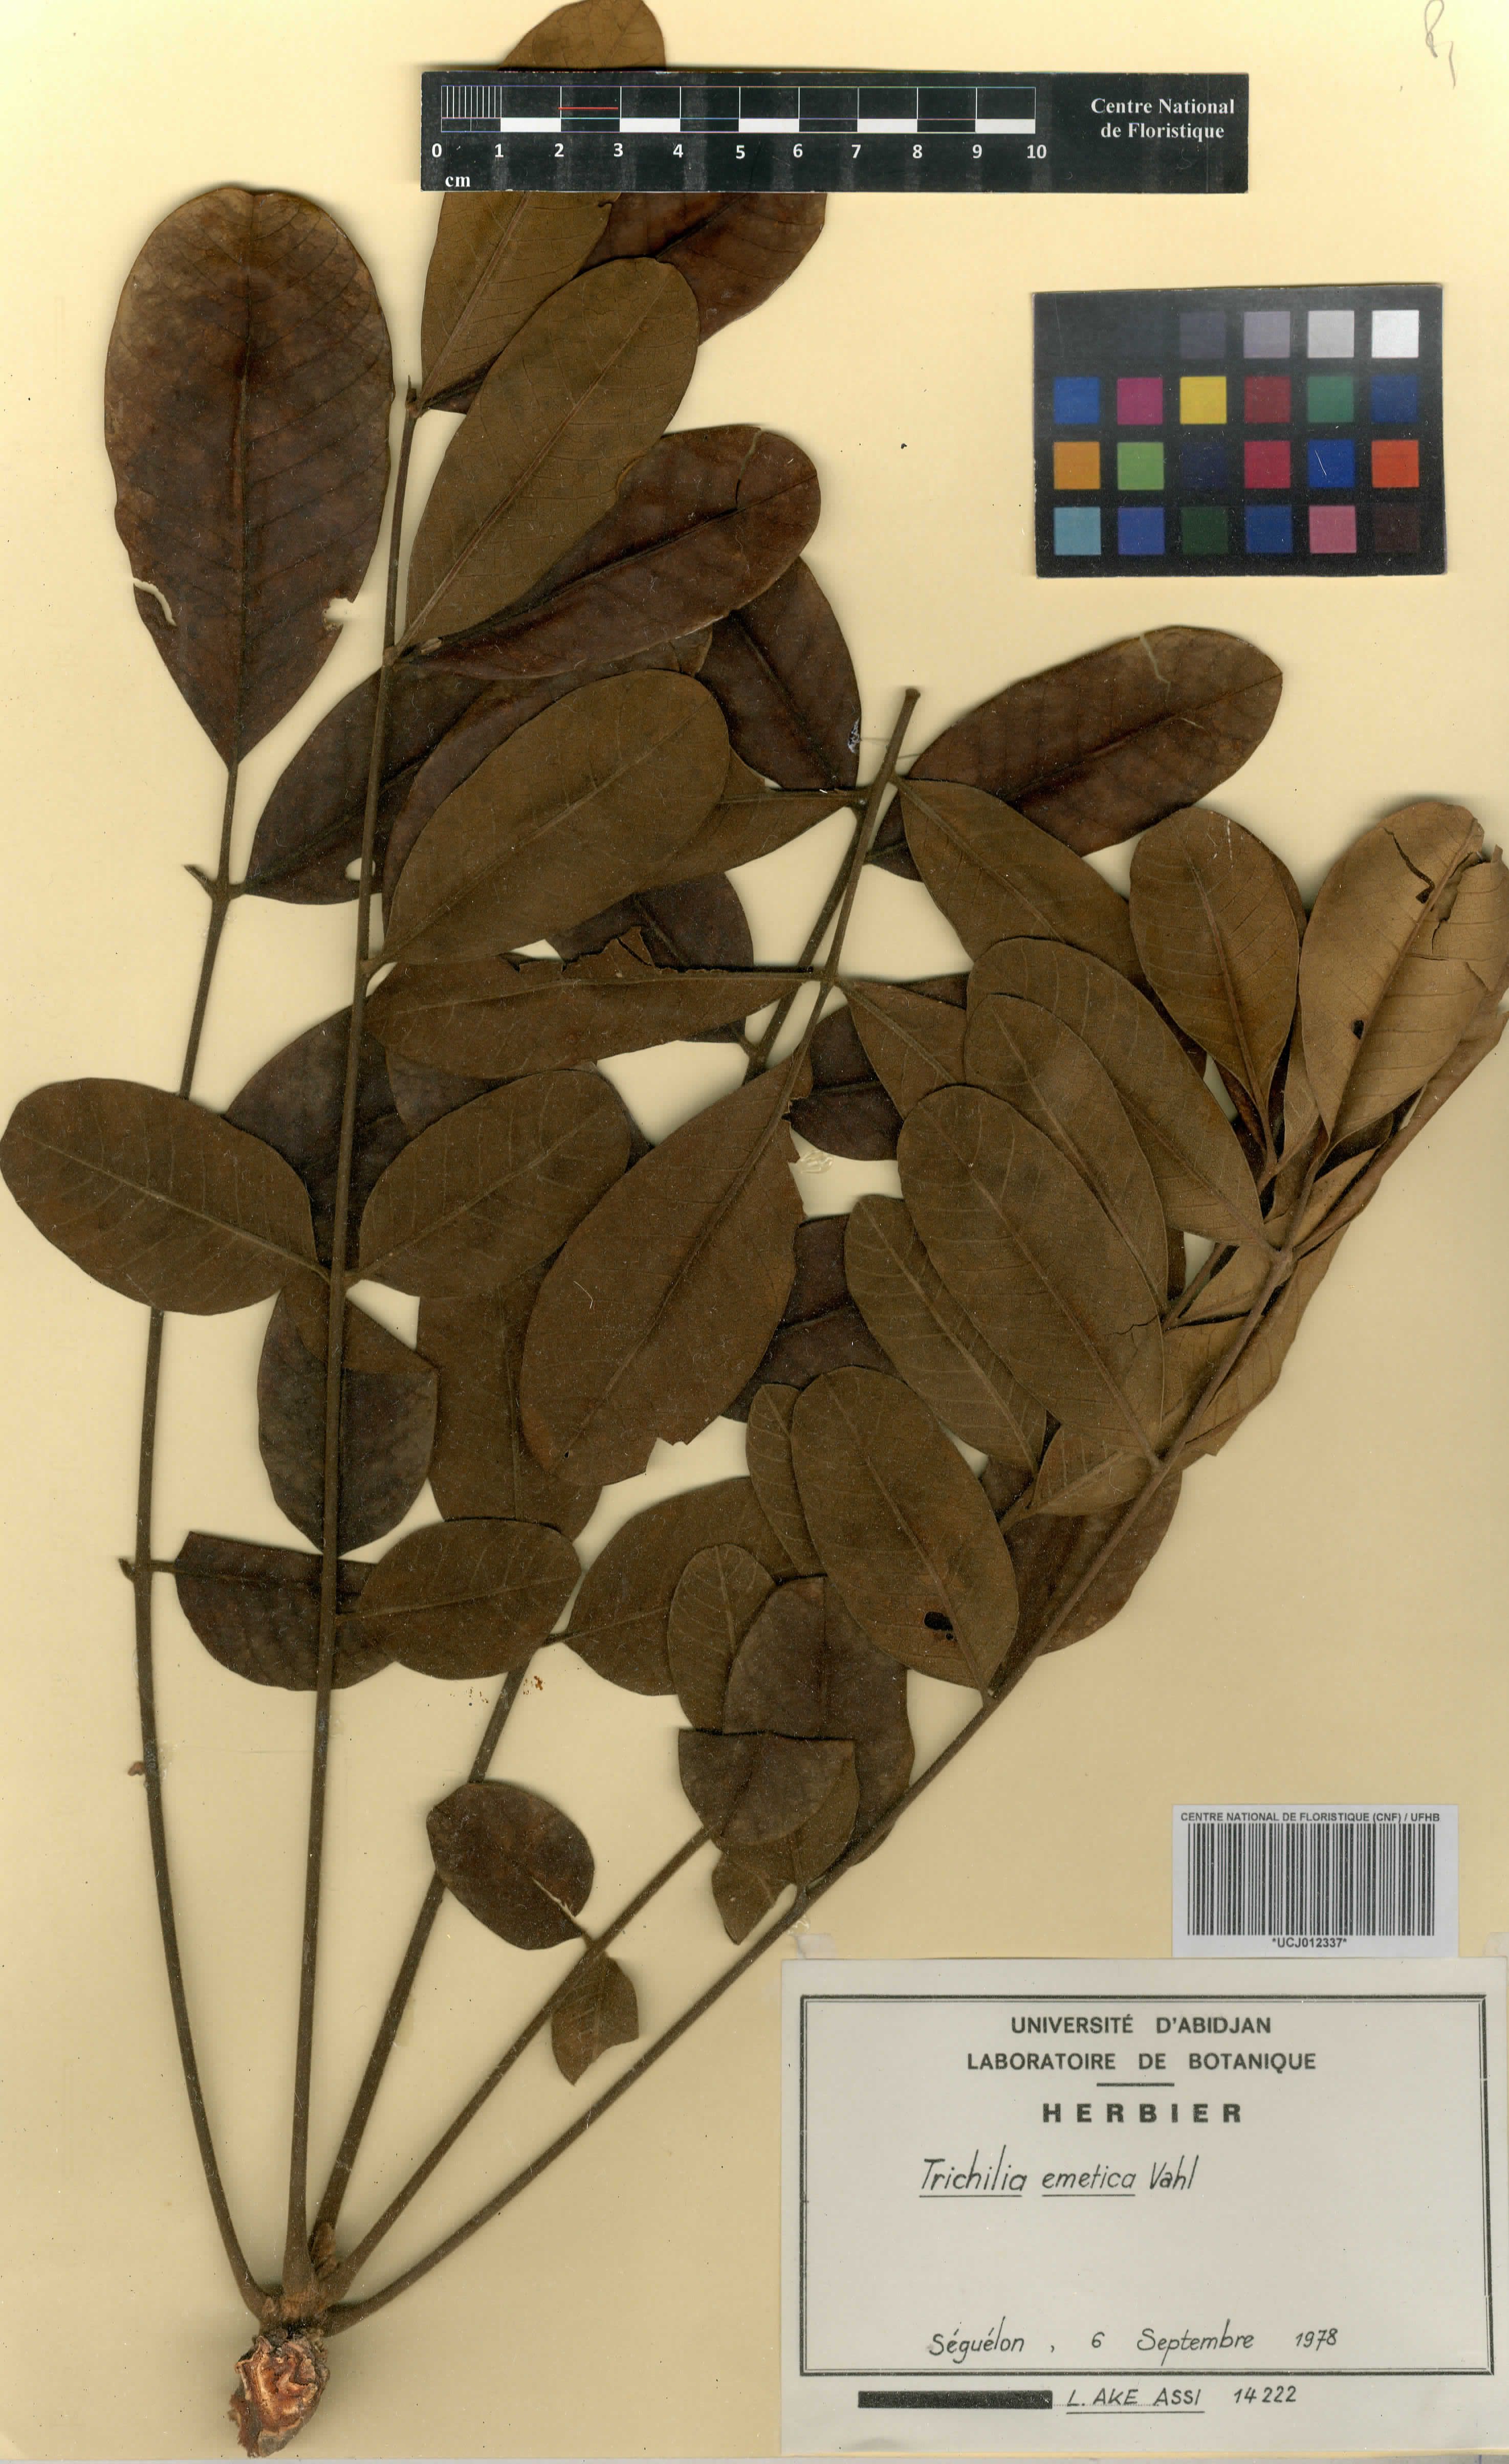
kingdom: Plantae
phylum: Tracheophyta
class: Magnoliopsida
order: Sapindales
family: Meliaceae
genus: Trichilia
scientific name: Trichilia emetica
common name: Christmas-bells
